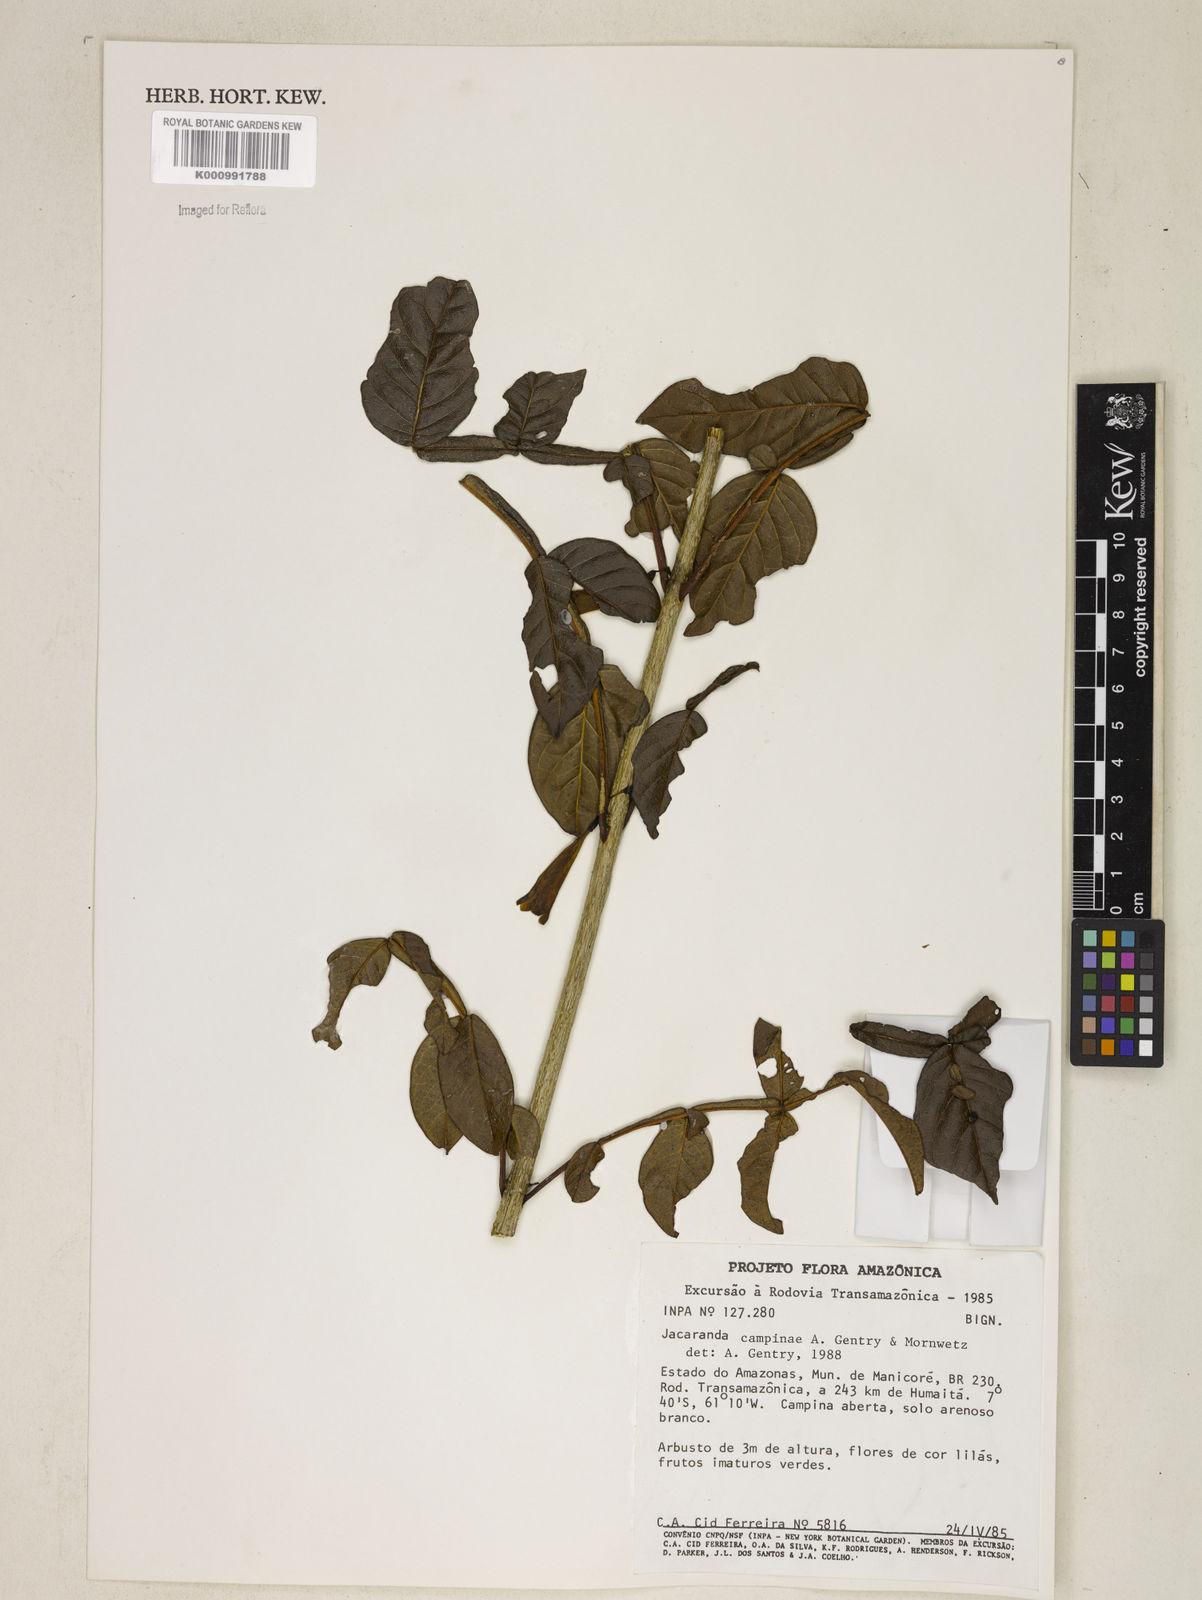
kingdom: Plantae
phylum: Tracheophyta
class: Magnoliopsida
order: Lamiales
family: Bignoniaceae
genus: Jacaranda
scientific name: Jacaranda campinae
